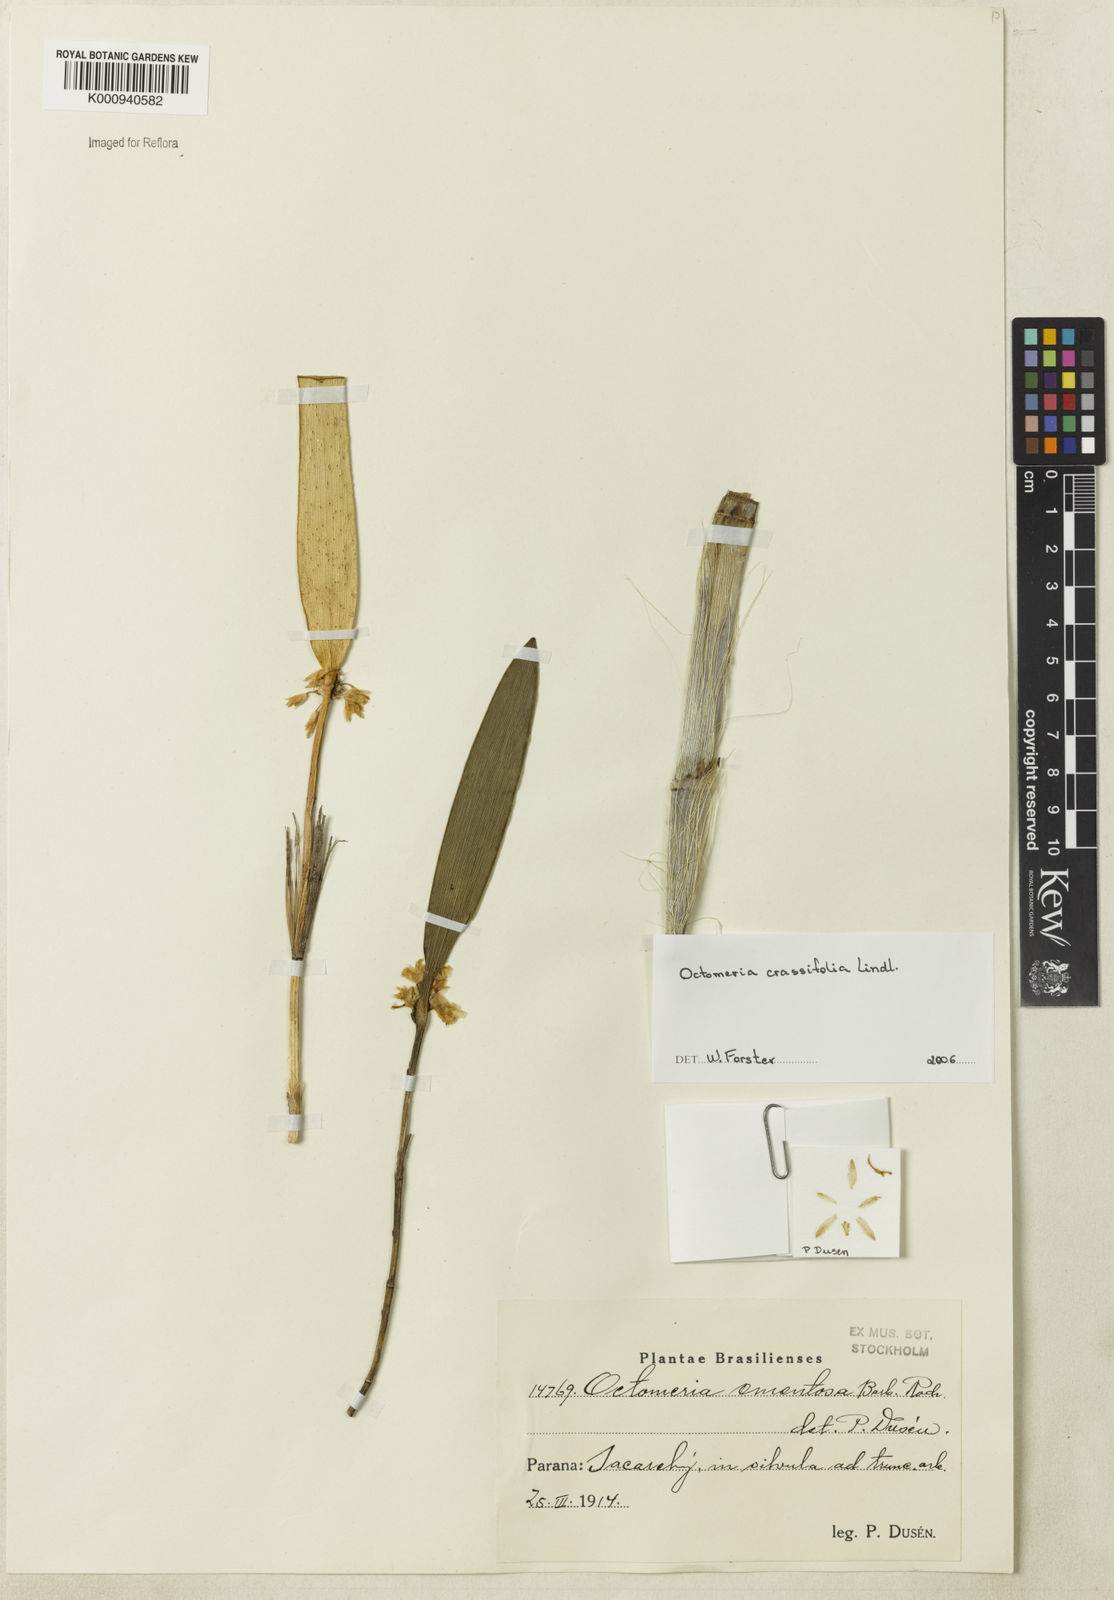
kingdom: Plantae
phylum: Tracheophyta
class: Liliopsida
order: Asparagales
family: Orchidaceae
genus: Octomeria
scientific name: Octomeria ementosa
